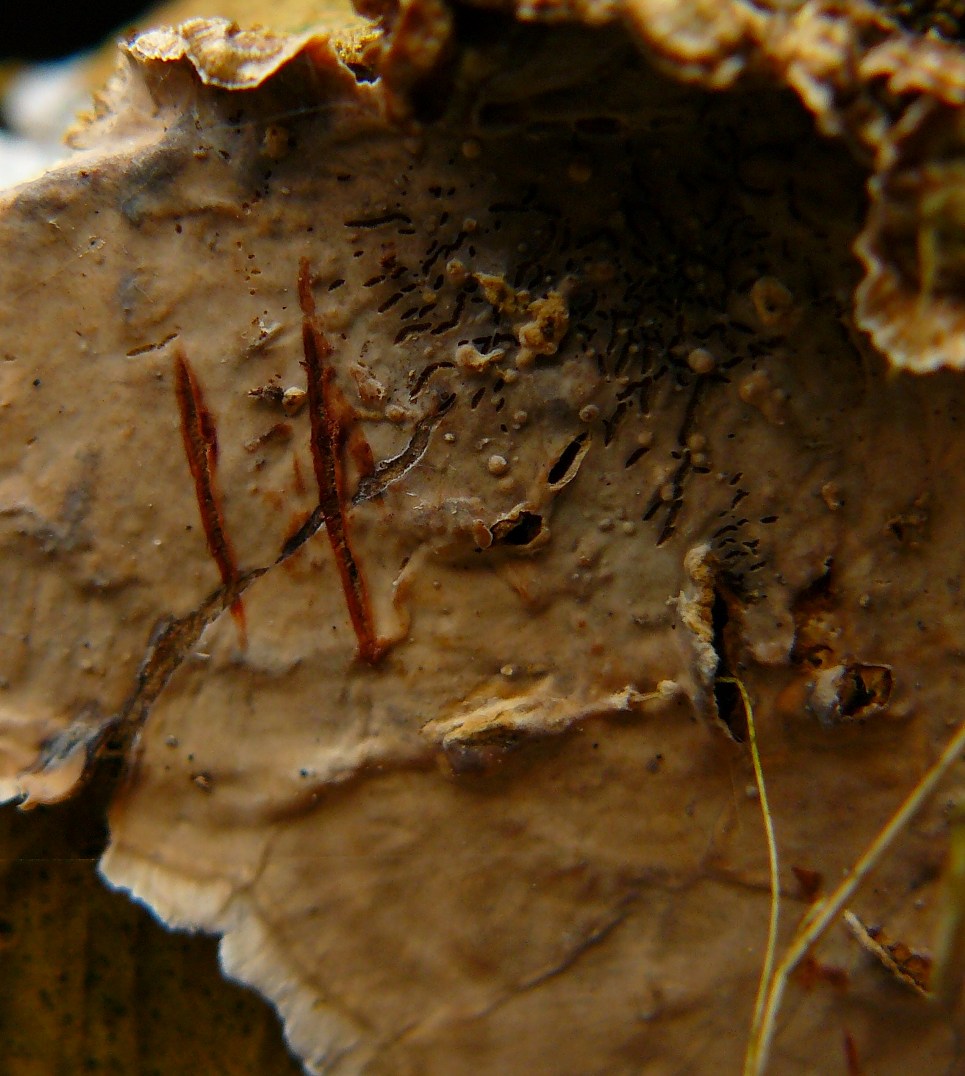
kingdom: Fungi
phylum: Basidiomycota
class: Agaricomycetes
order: Russulales
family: Stereaceae
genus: Stereum
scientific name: Stereum sanguinolentum
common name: blødende lædersvamp
